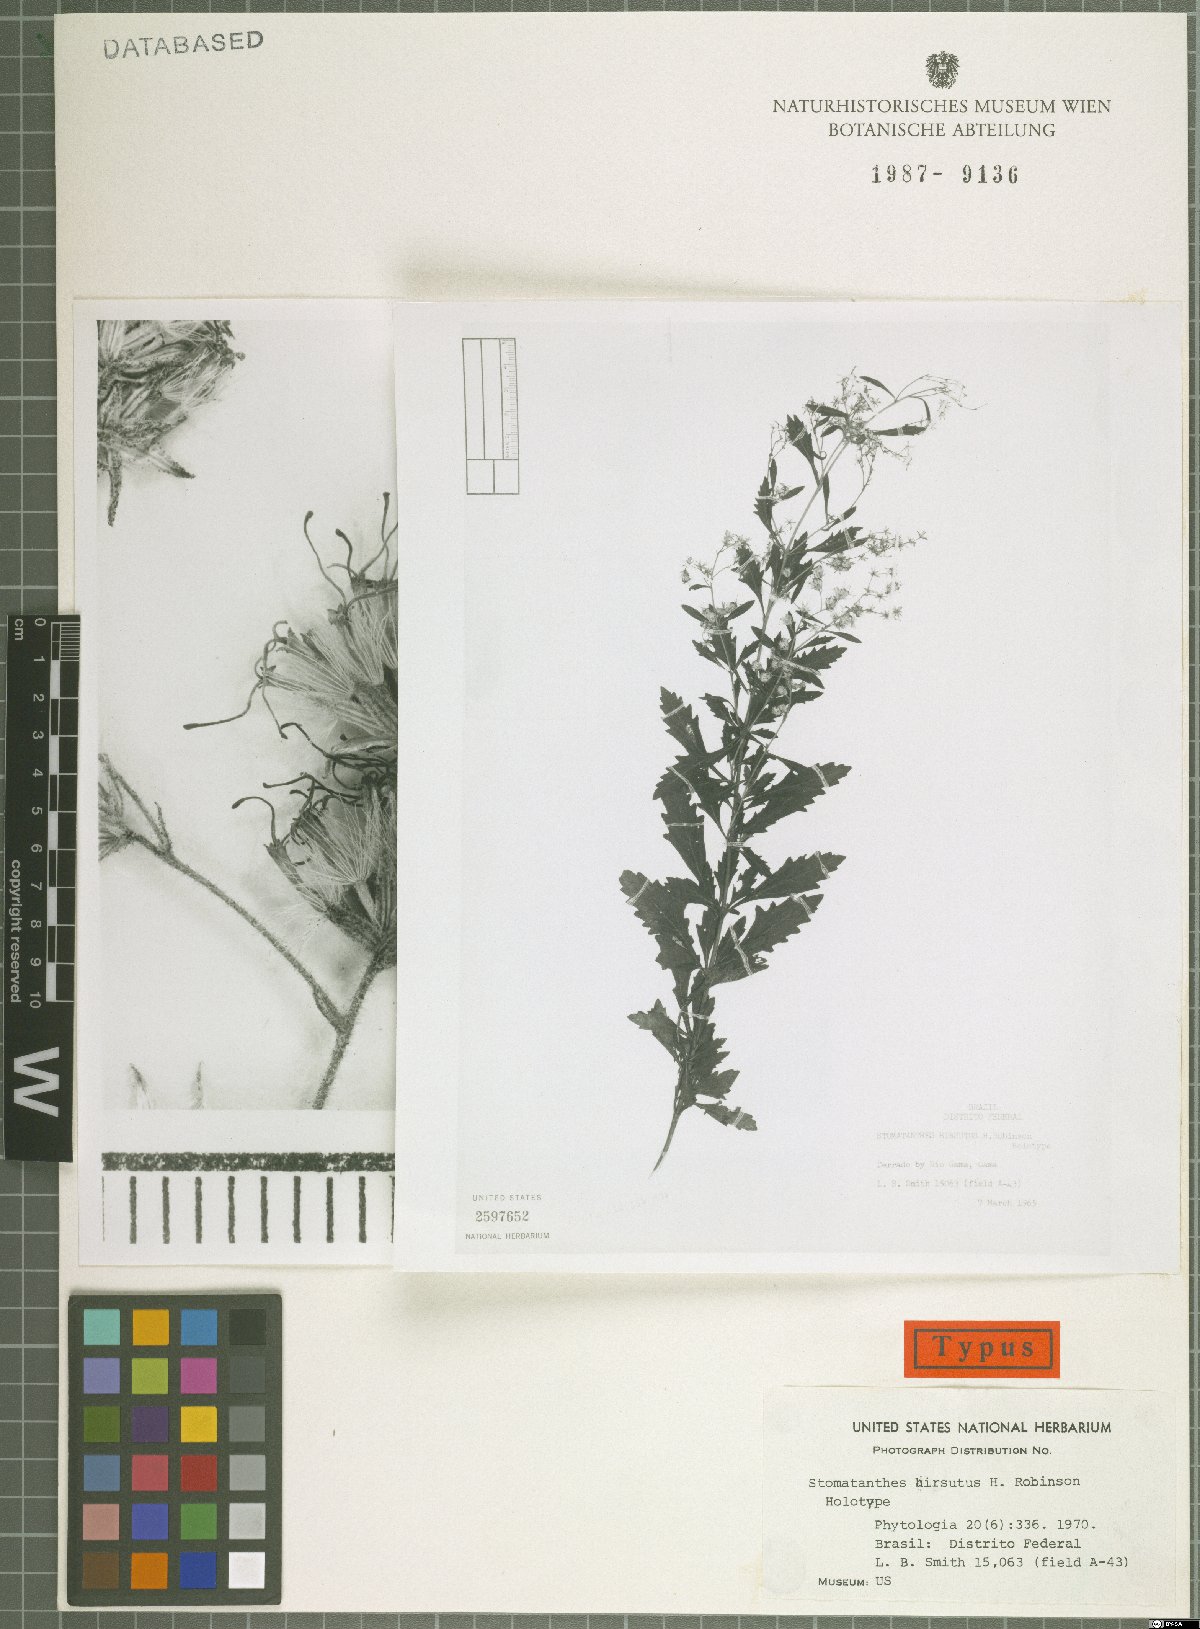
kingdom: Plantae
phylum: Tracheophyta
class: Magnoliopsida
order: Asterales
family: Asteraceae
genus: Stomatanthes
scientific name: Stomatanthes hirsutus
